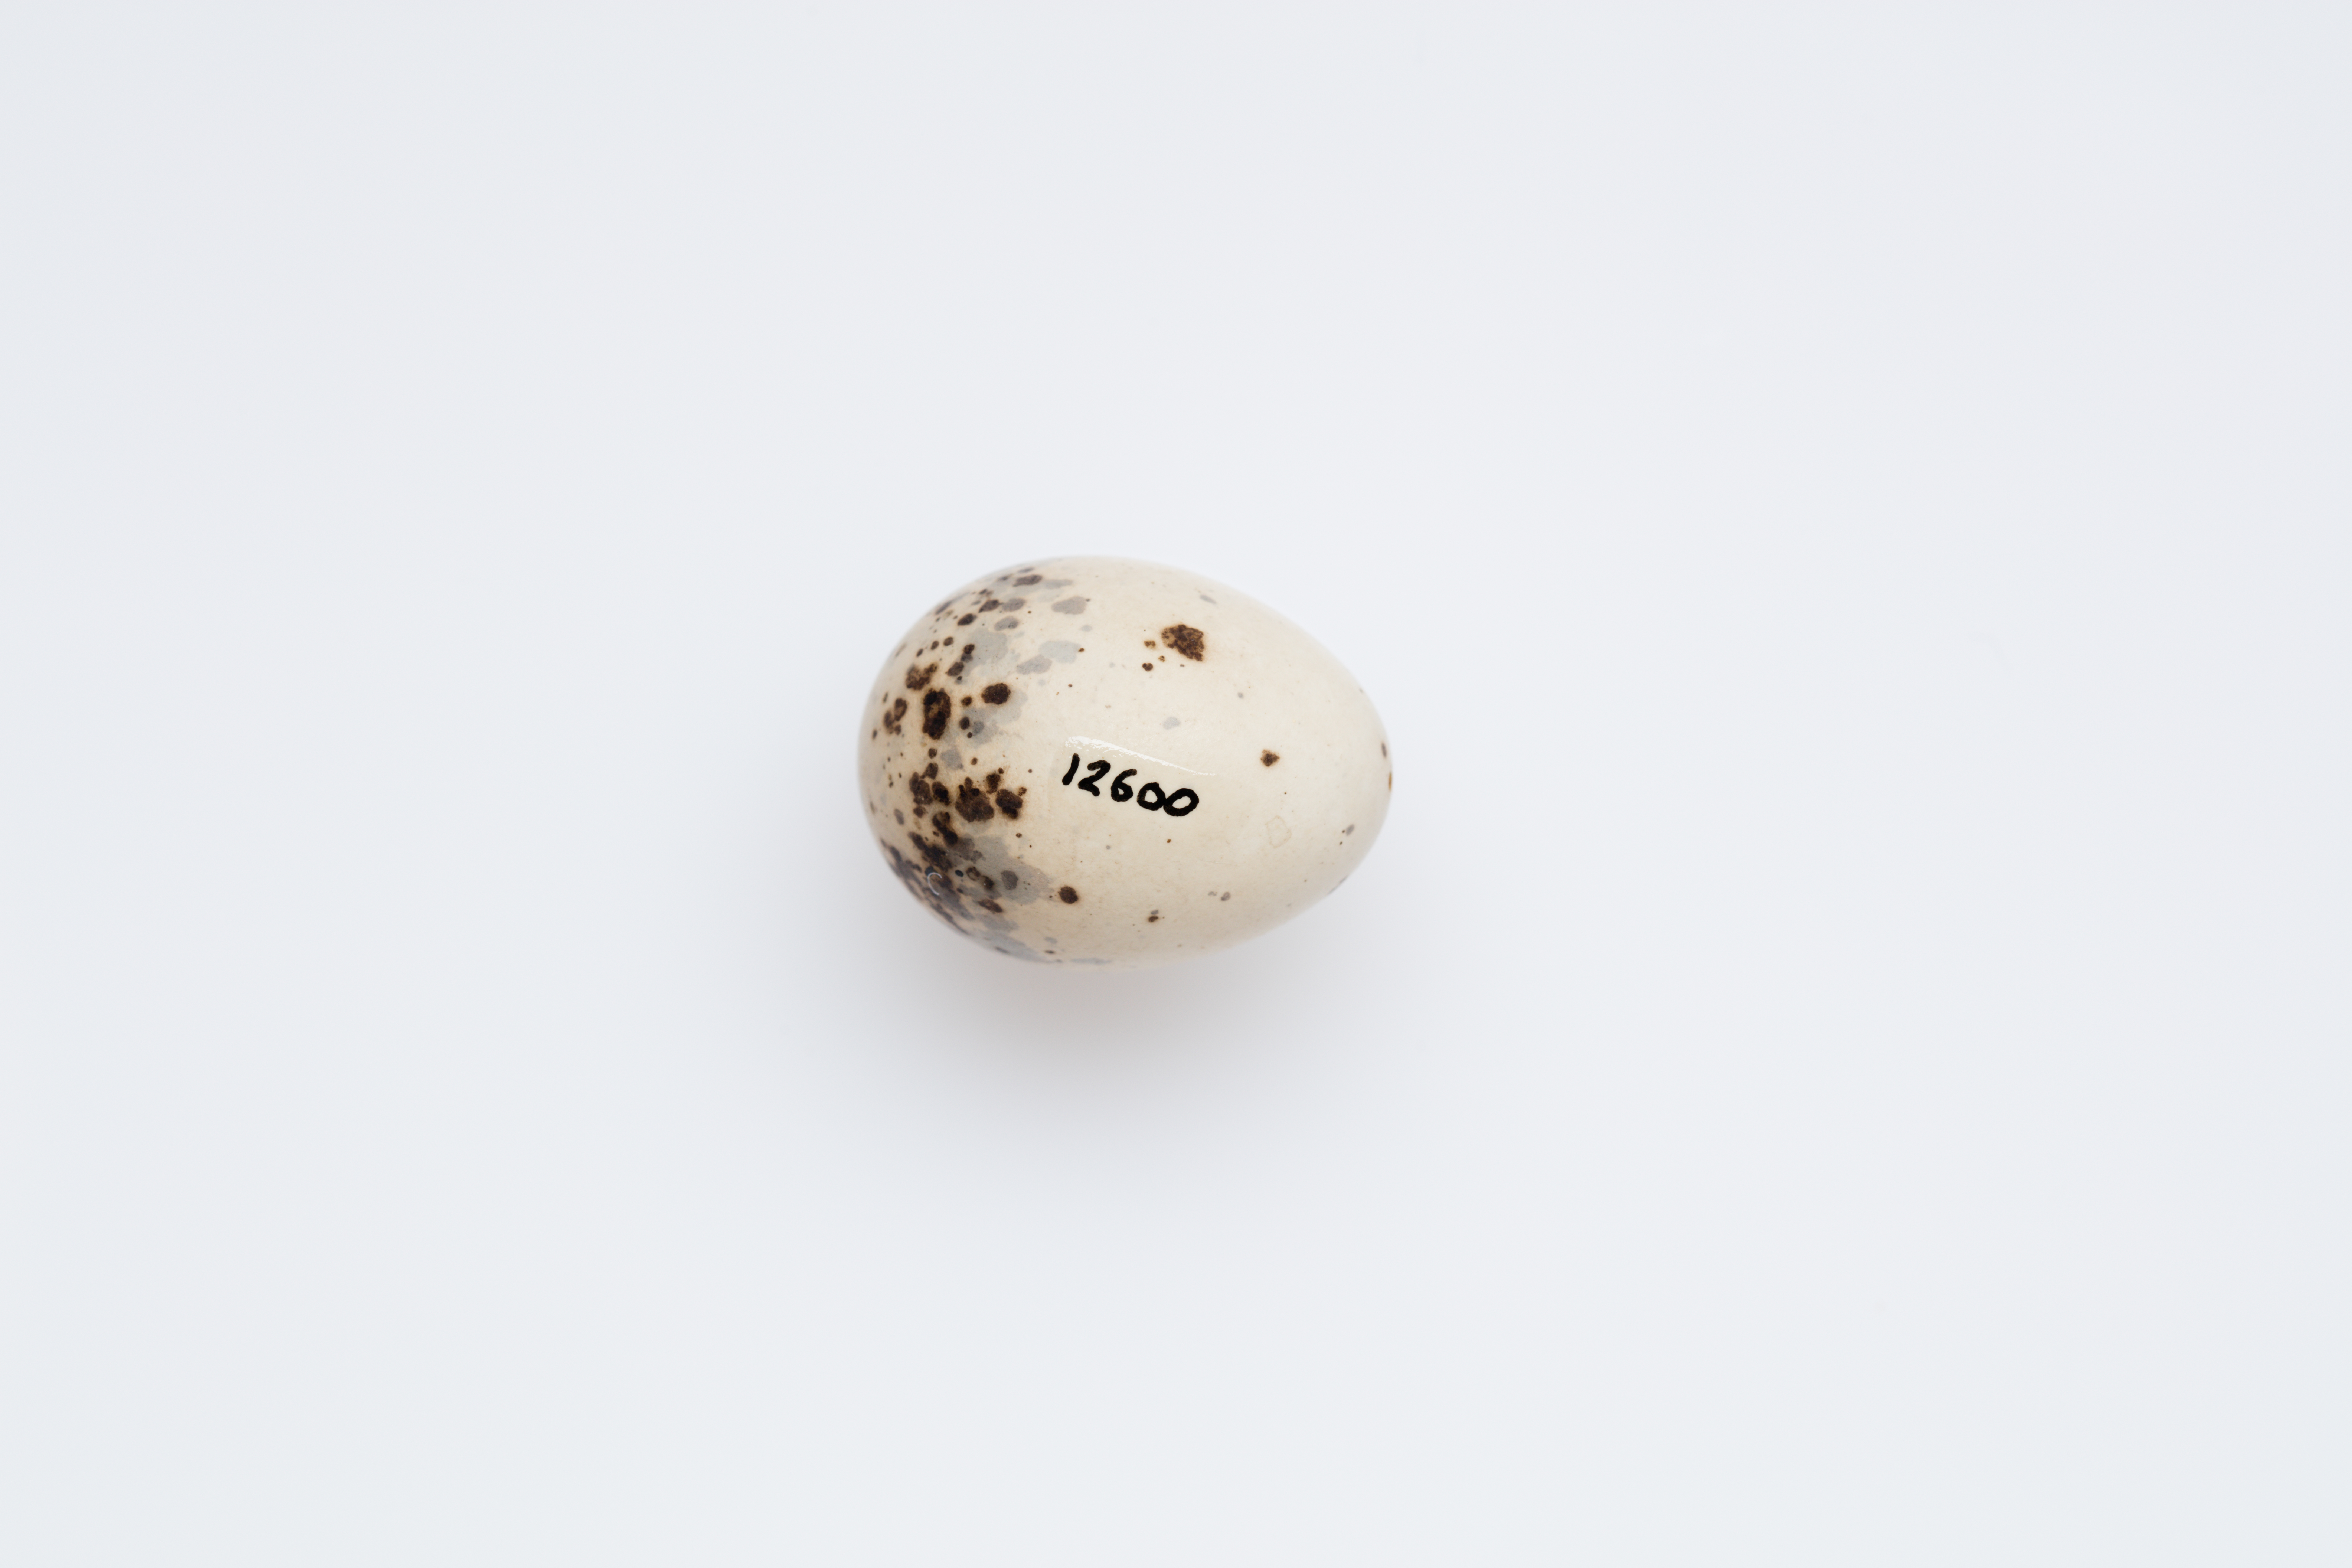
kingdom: Animalia
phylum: Chordata
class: Aves
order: Passeriformes
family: Artamidae
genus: Artamus
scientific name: Artamus personatus
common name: Masked woodswallow
